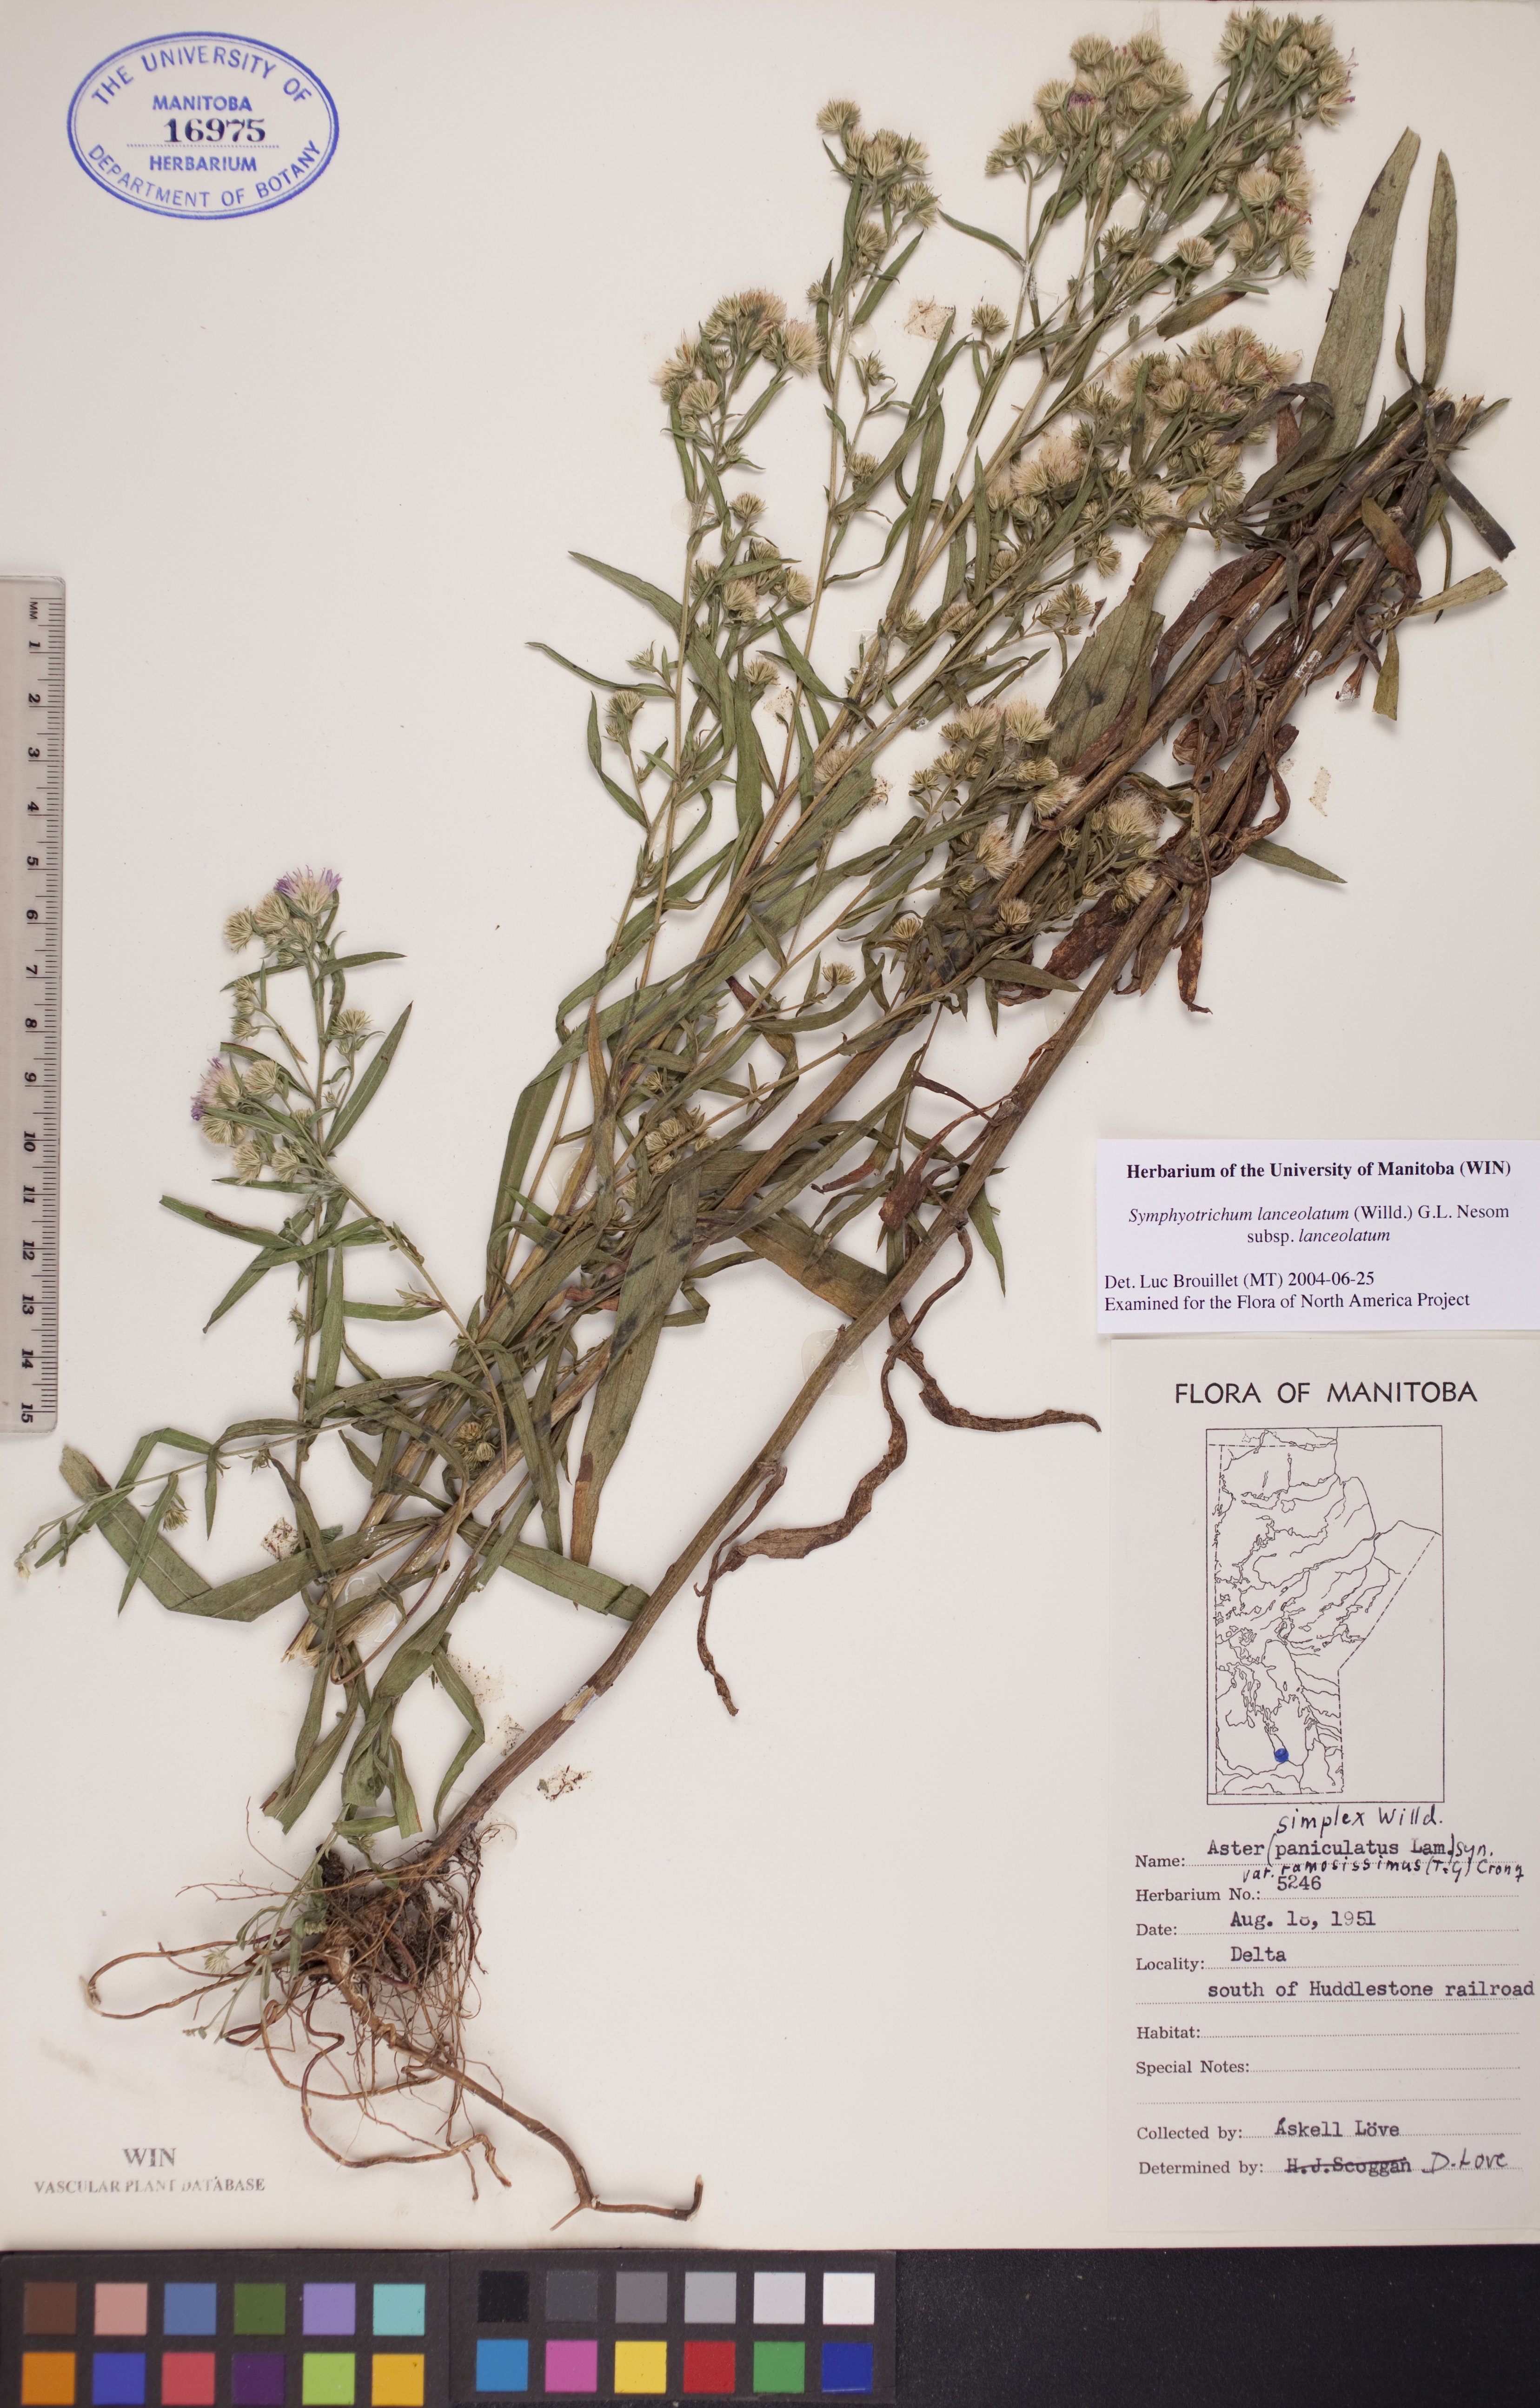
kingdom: Plantae
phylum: Tracheophyta
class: Magnoliopsida
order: Asterales
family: Asteraceae
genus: Symphyotrichum
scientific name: Symphyotrichum lanceolatum
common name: Panicled aster
